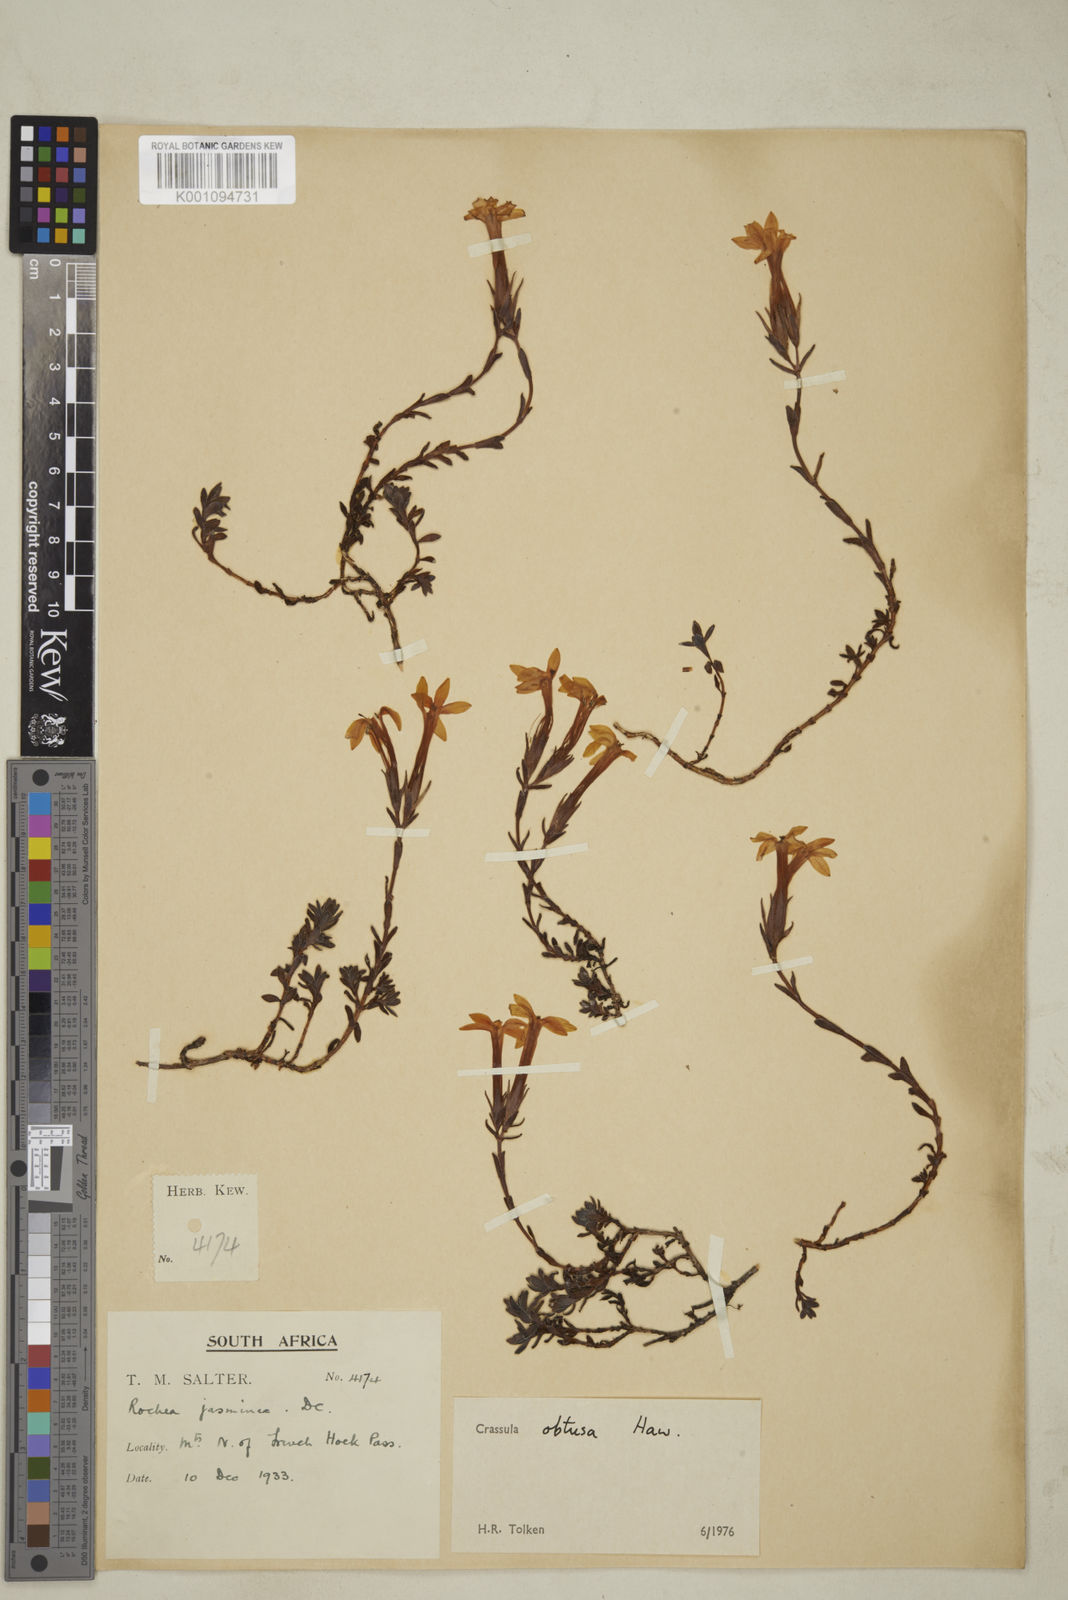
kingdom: Plantae
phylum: Tracheophyta
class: Magnoliopsida
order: Saxifragales
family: Crassulaceae
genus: Crassula
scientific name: Crassula obtusa
